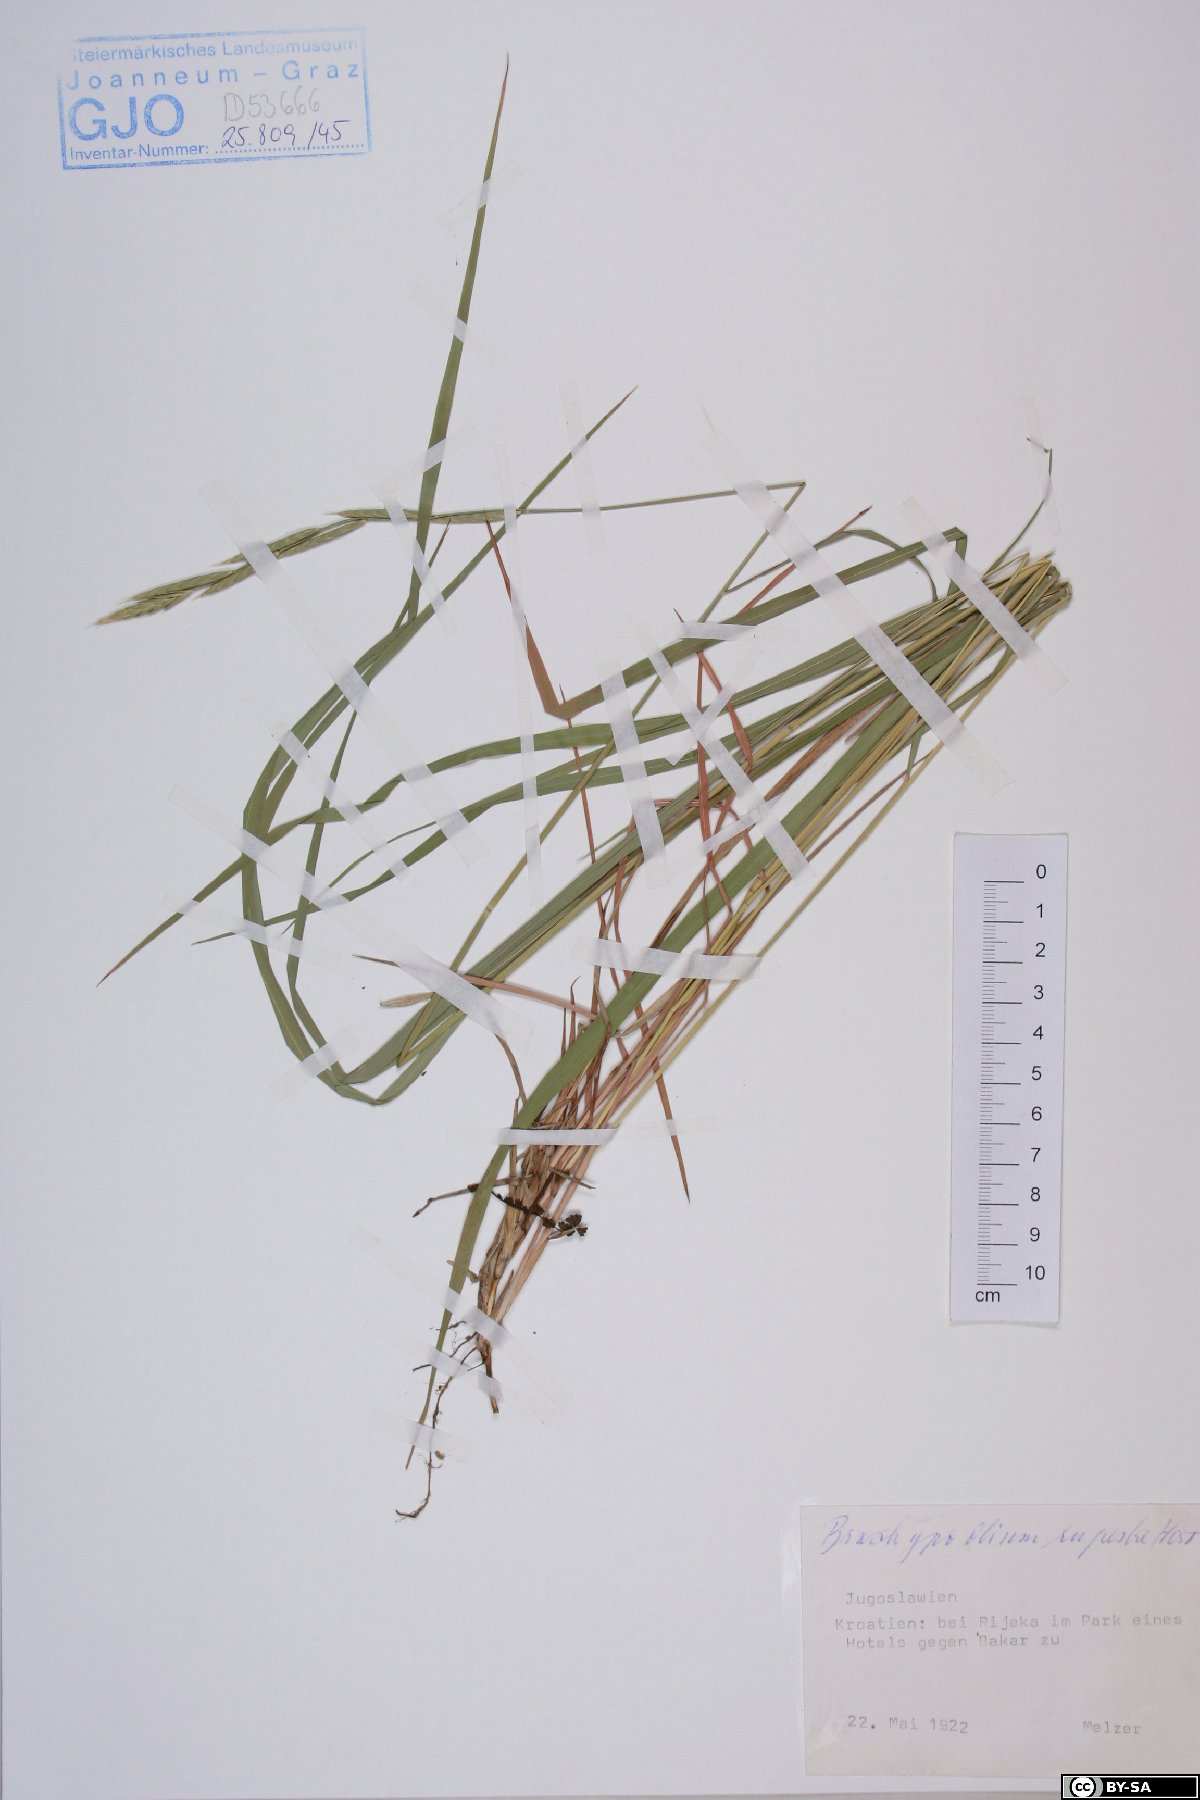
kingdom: Plantae
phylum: Tracheophyta
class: Liliopsida
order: Poales
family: Poaceae
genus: Brachypodium
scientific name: Brachypodium pinnatum
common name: Tor grass
